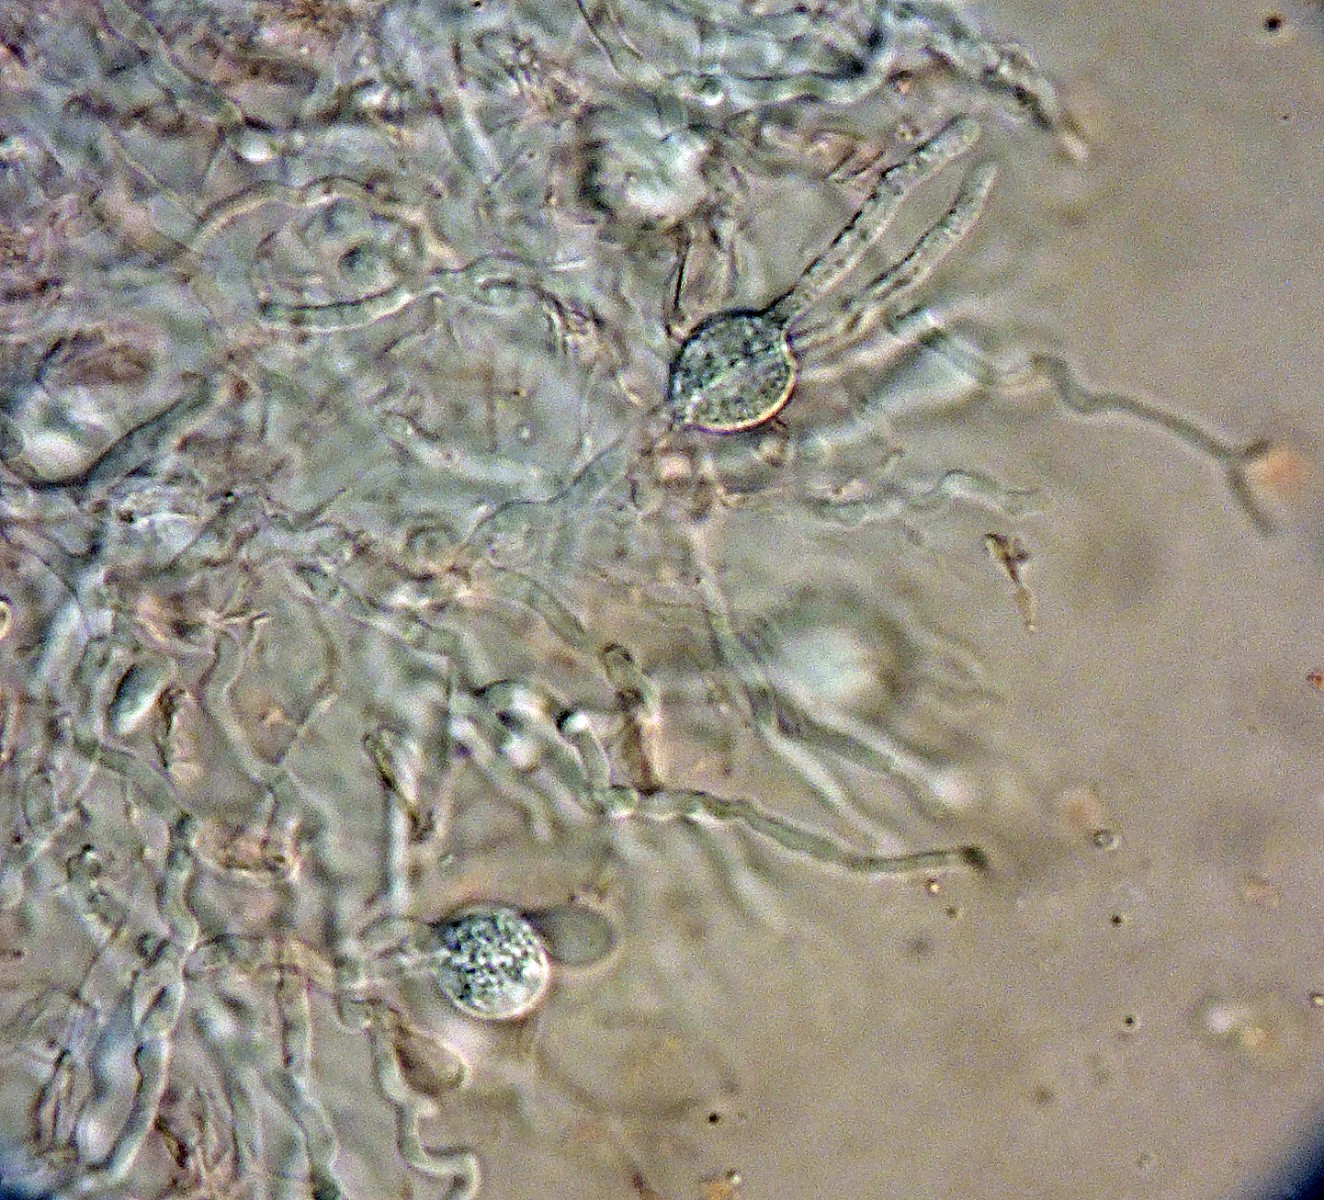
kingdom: Fungi
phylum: Basidiomycota
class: Agaricomycetes
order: Auriculariales
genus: Stypella
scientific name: Stypella grilletii
